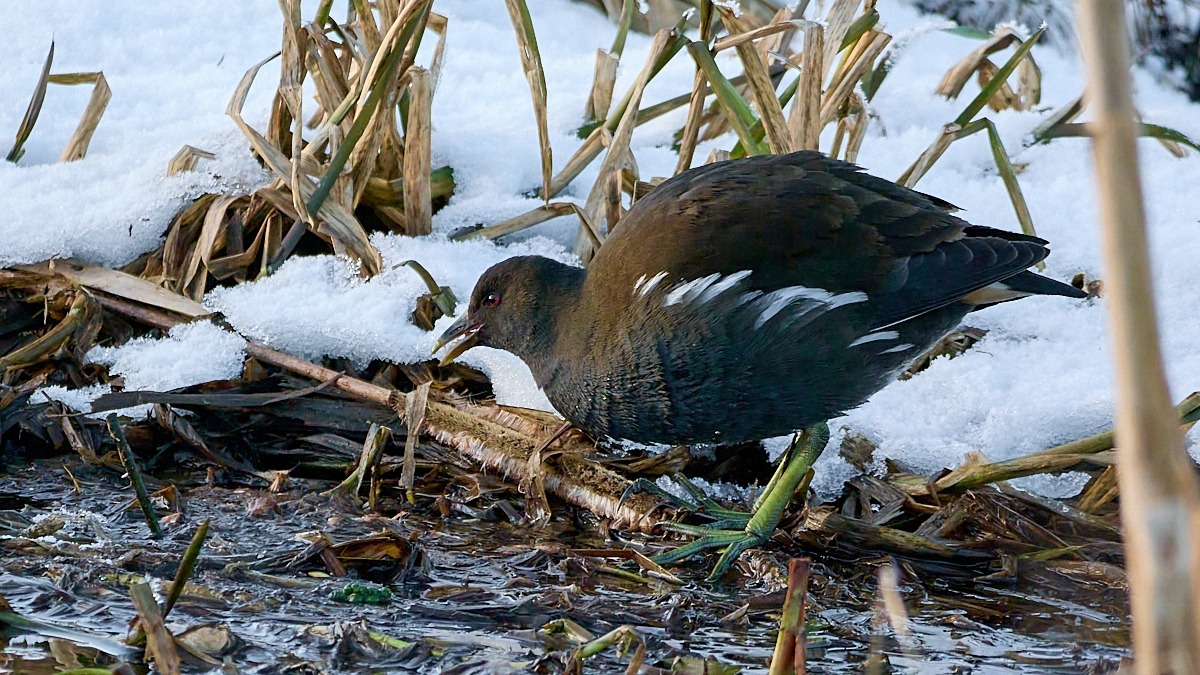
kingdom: Animalia
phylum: Chordata
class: Aves
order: Gruiformes
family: Rallidae
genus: Gallinula
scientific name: Gallinula chloropus
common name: Grønbenet rørhøne
